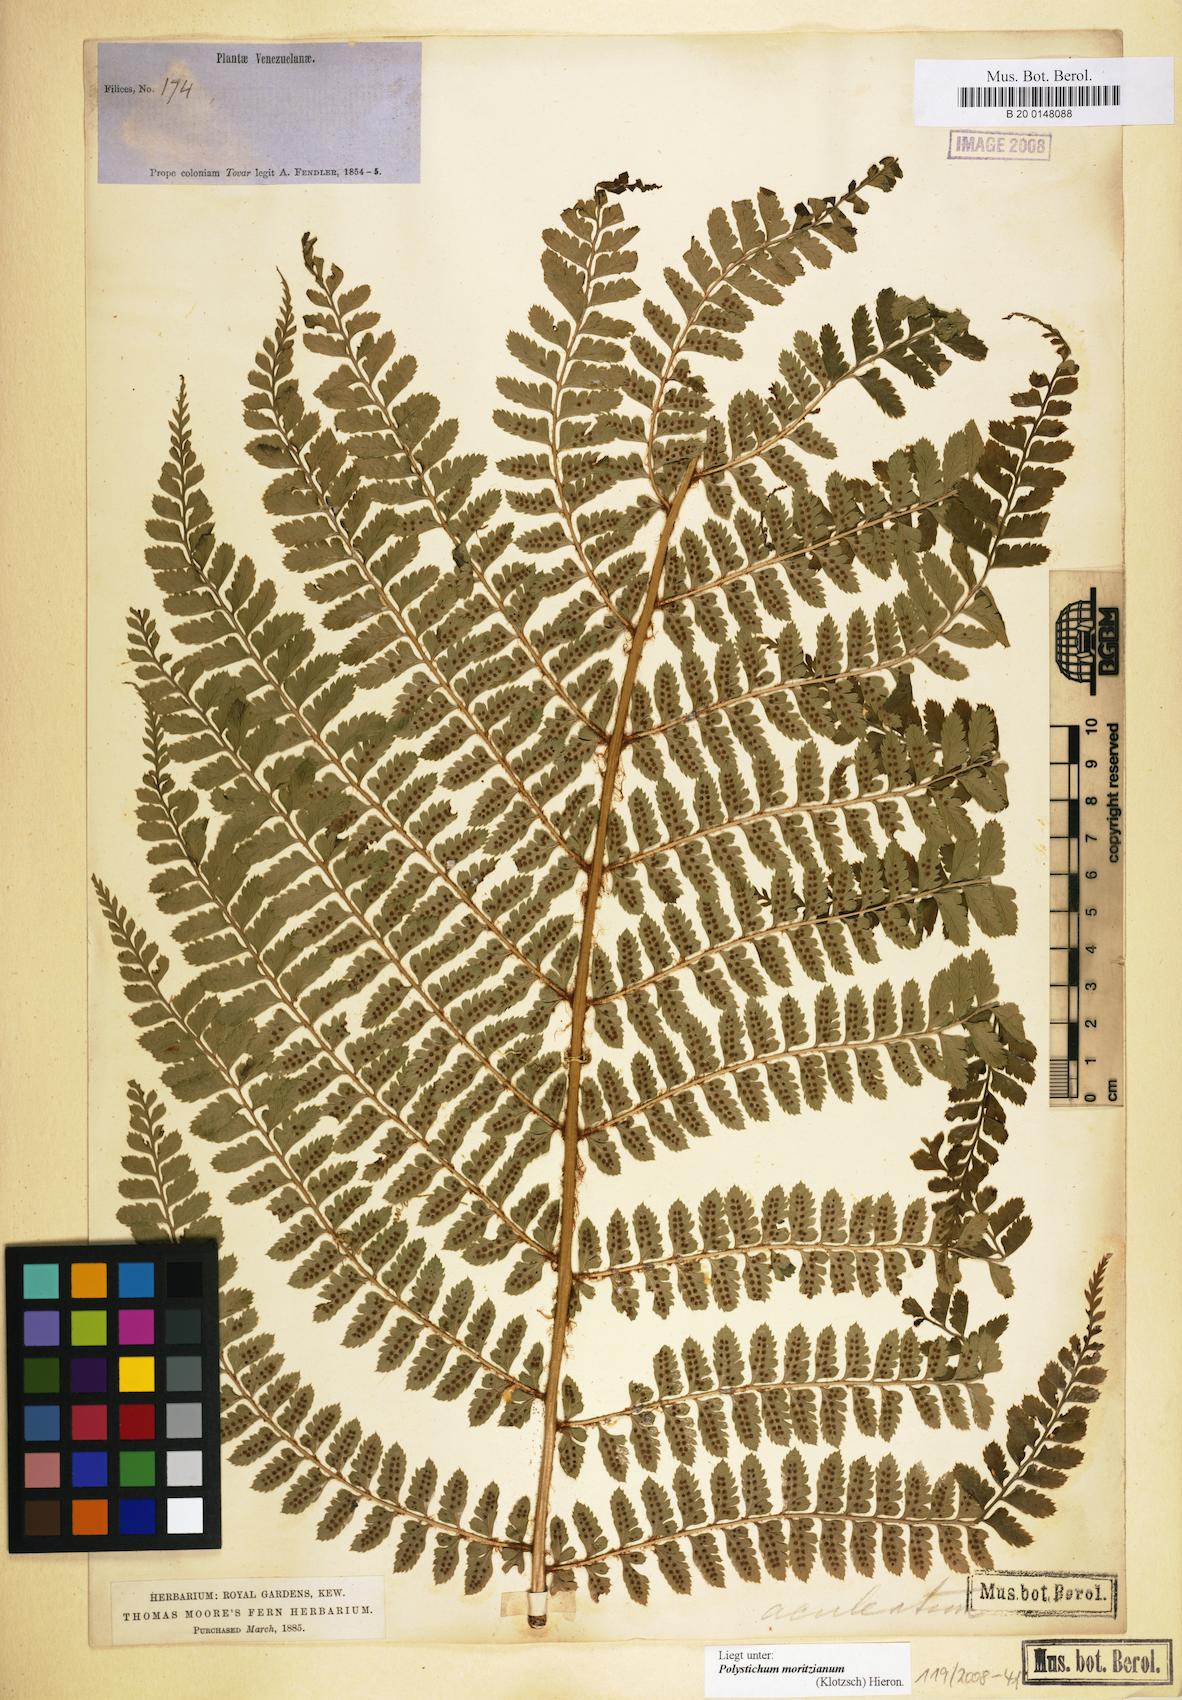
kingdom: Plantae
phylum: Tracheophyta
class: Polypodiopsida
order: Polypodiales
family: Dryopteridaceae
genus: Polystichum
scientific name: Polystichum muricatum
